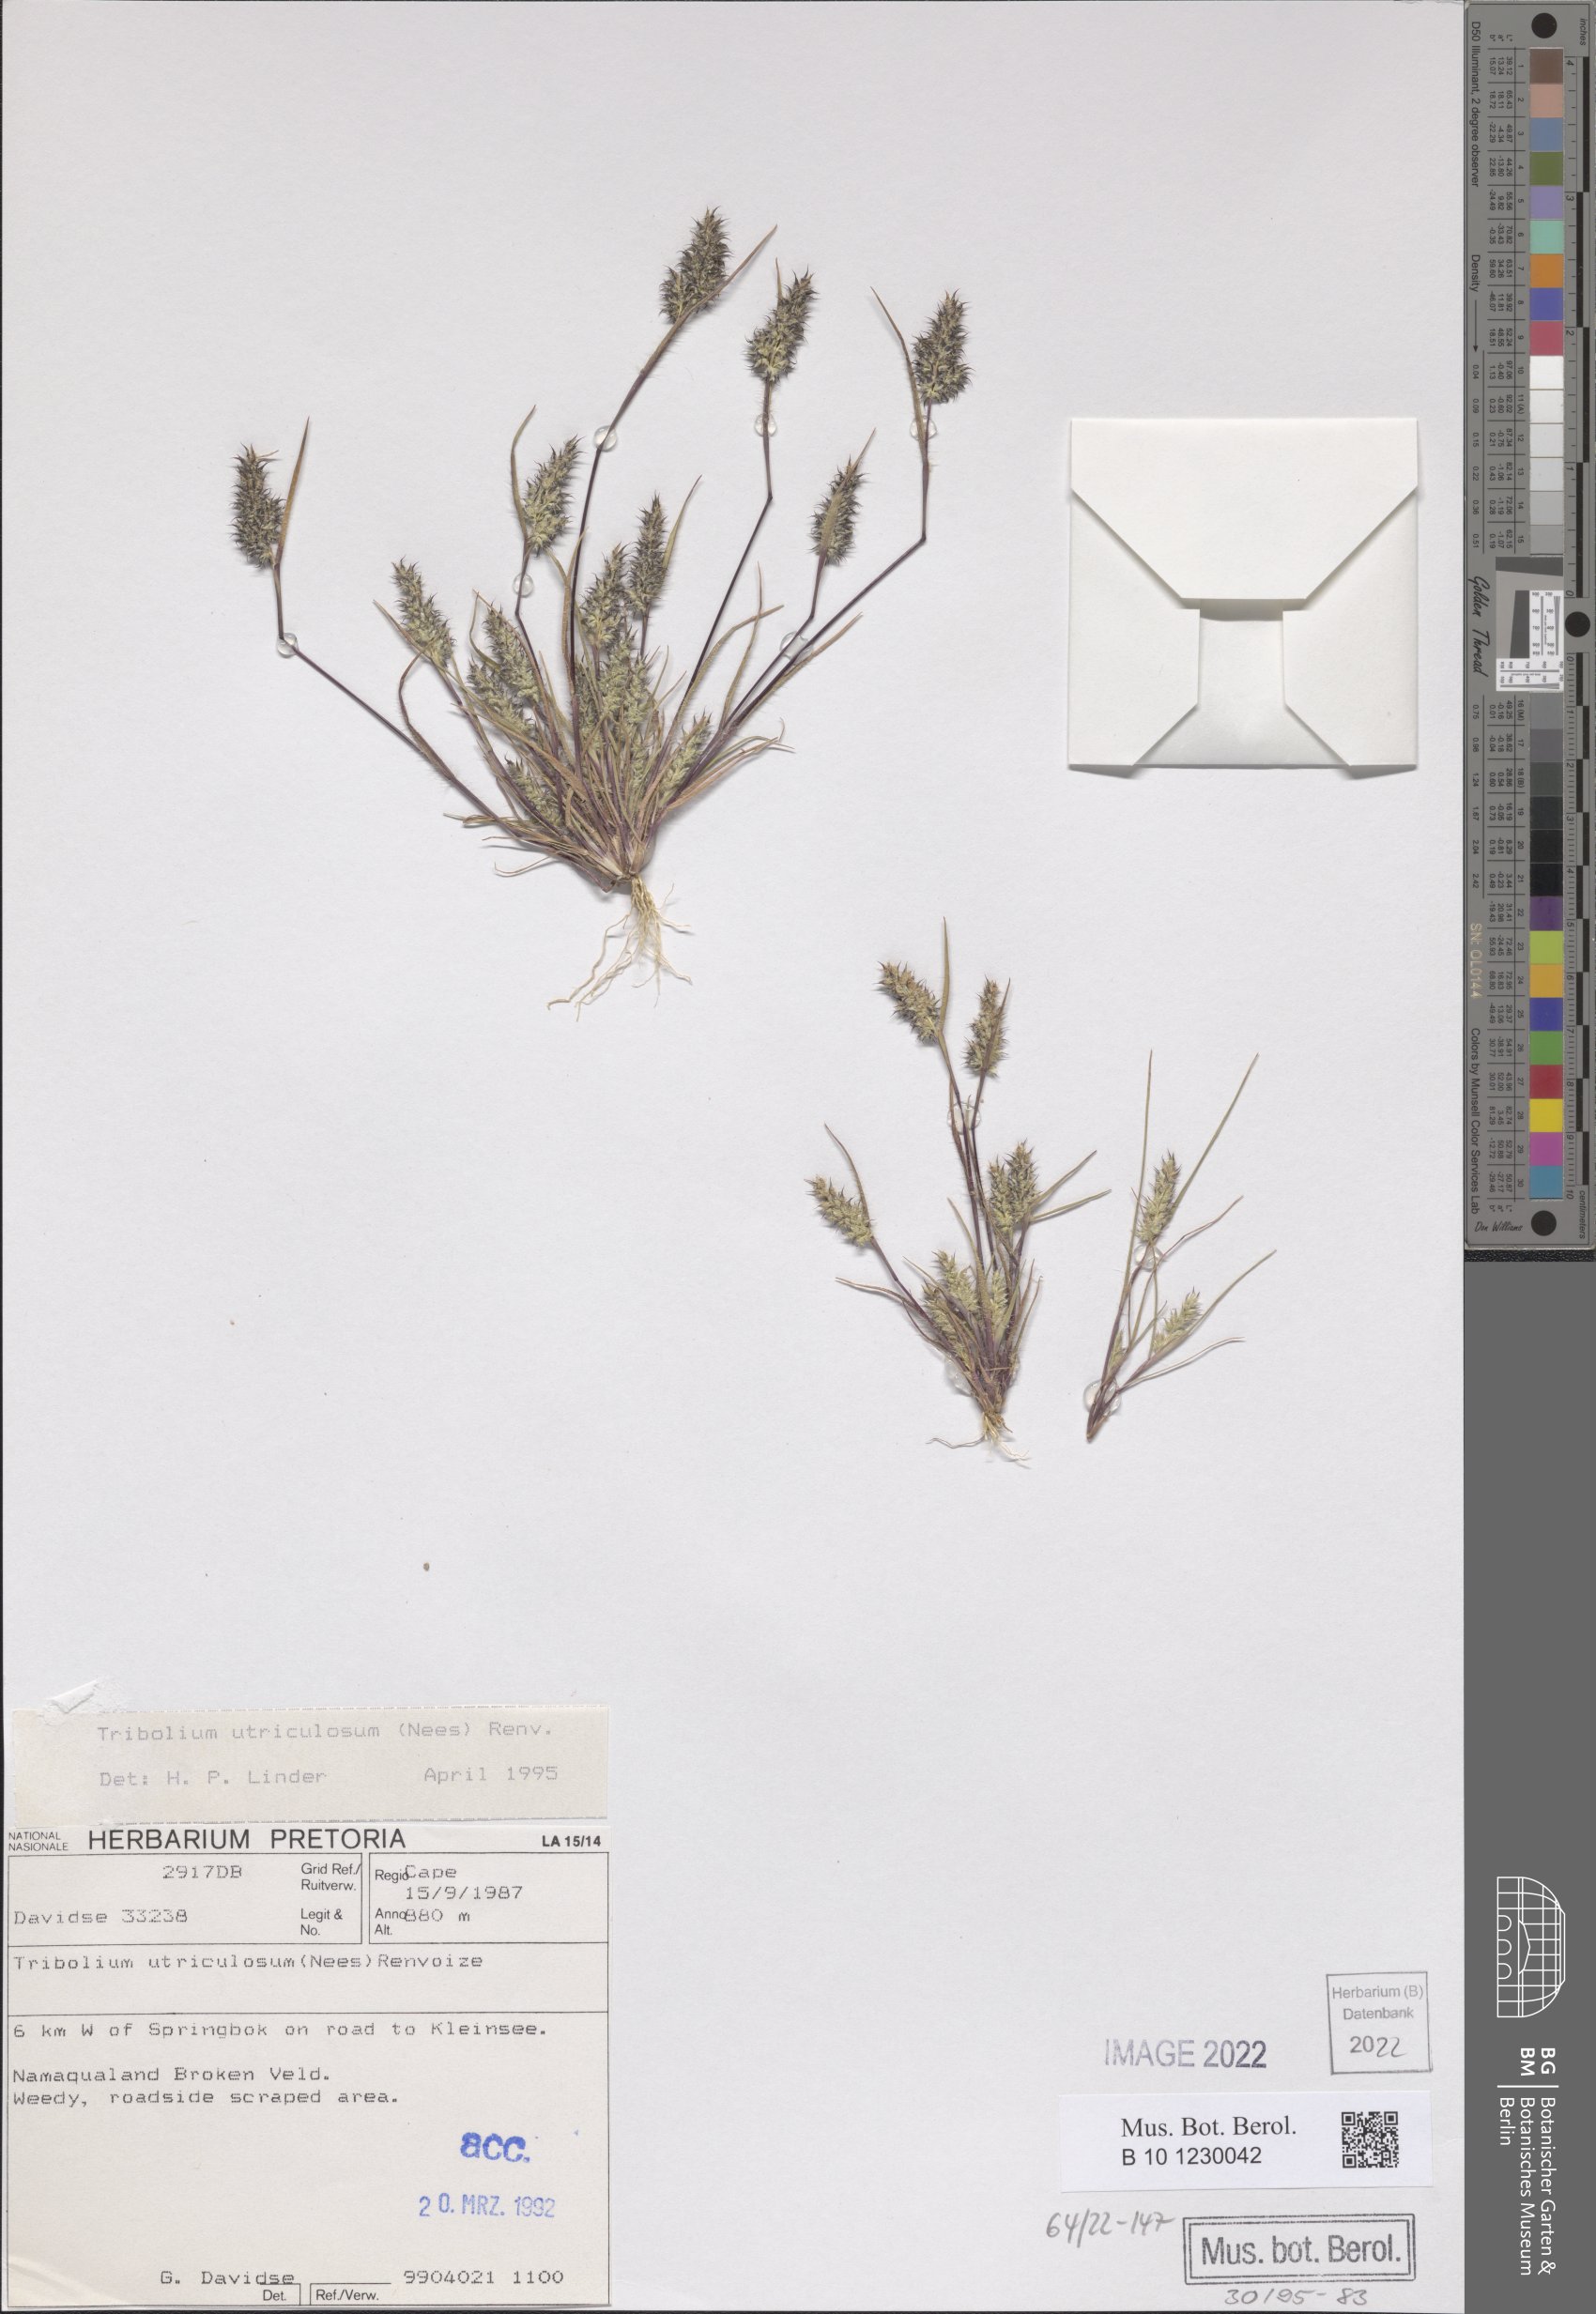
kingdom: Plantae
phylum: Tracheophyta
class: Liliopsida
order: Poales
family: Poaceae
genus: Tribolium
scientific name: Tribolium utriculosum
